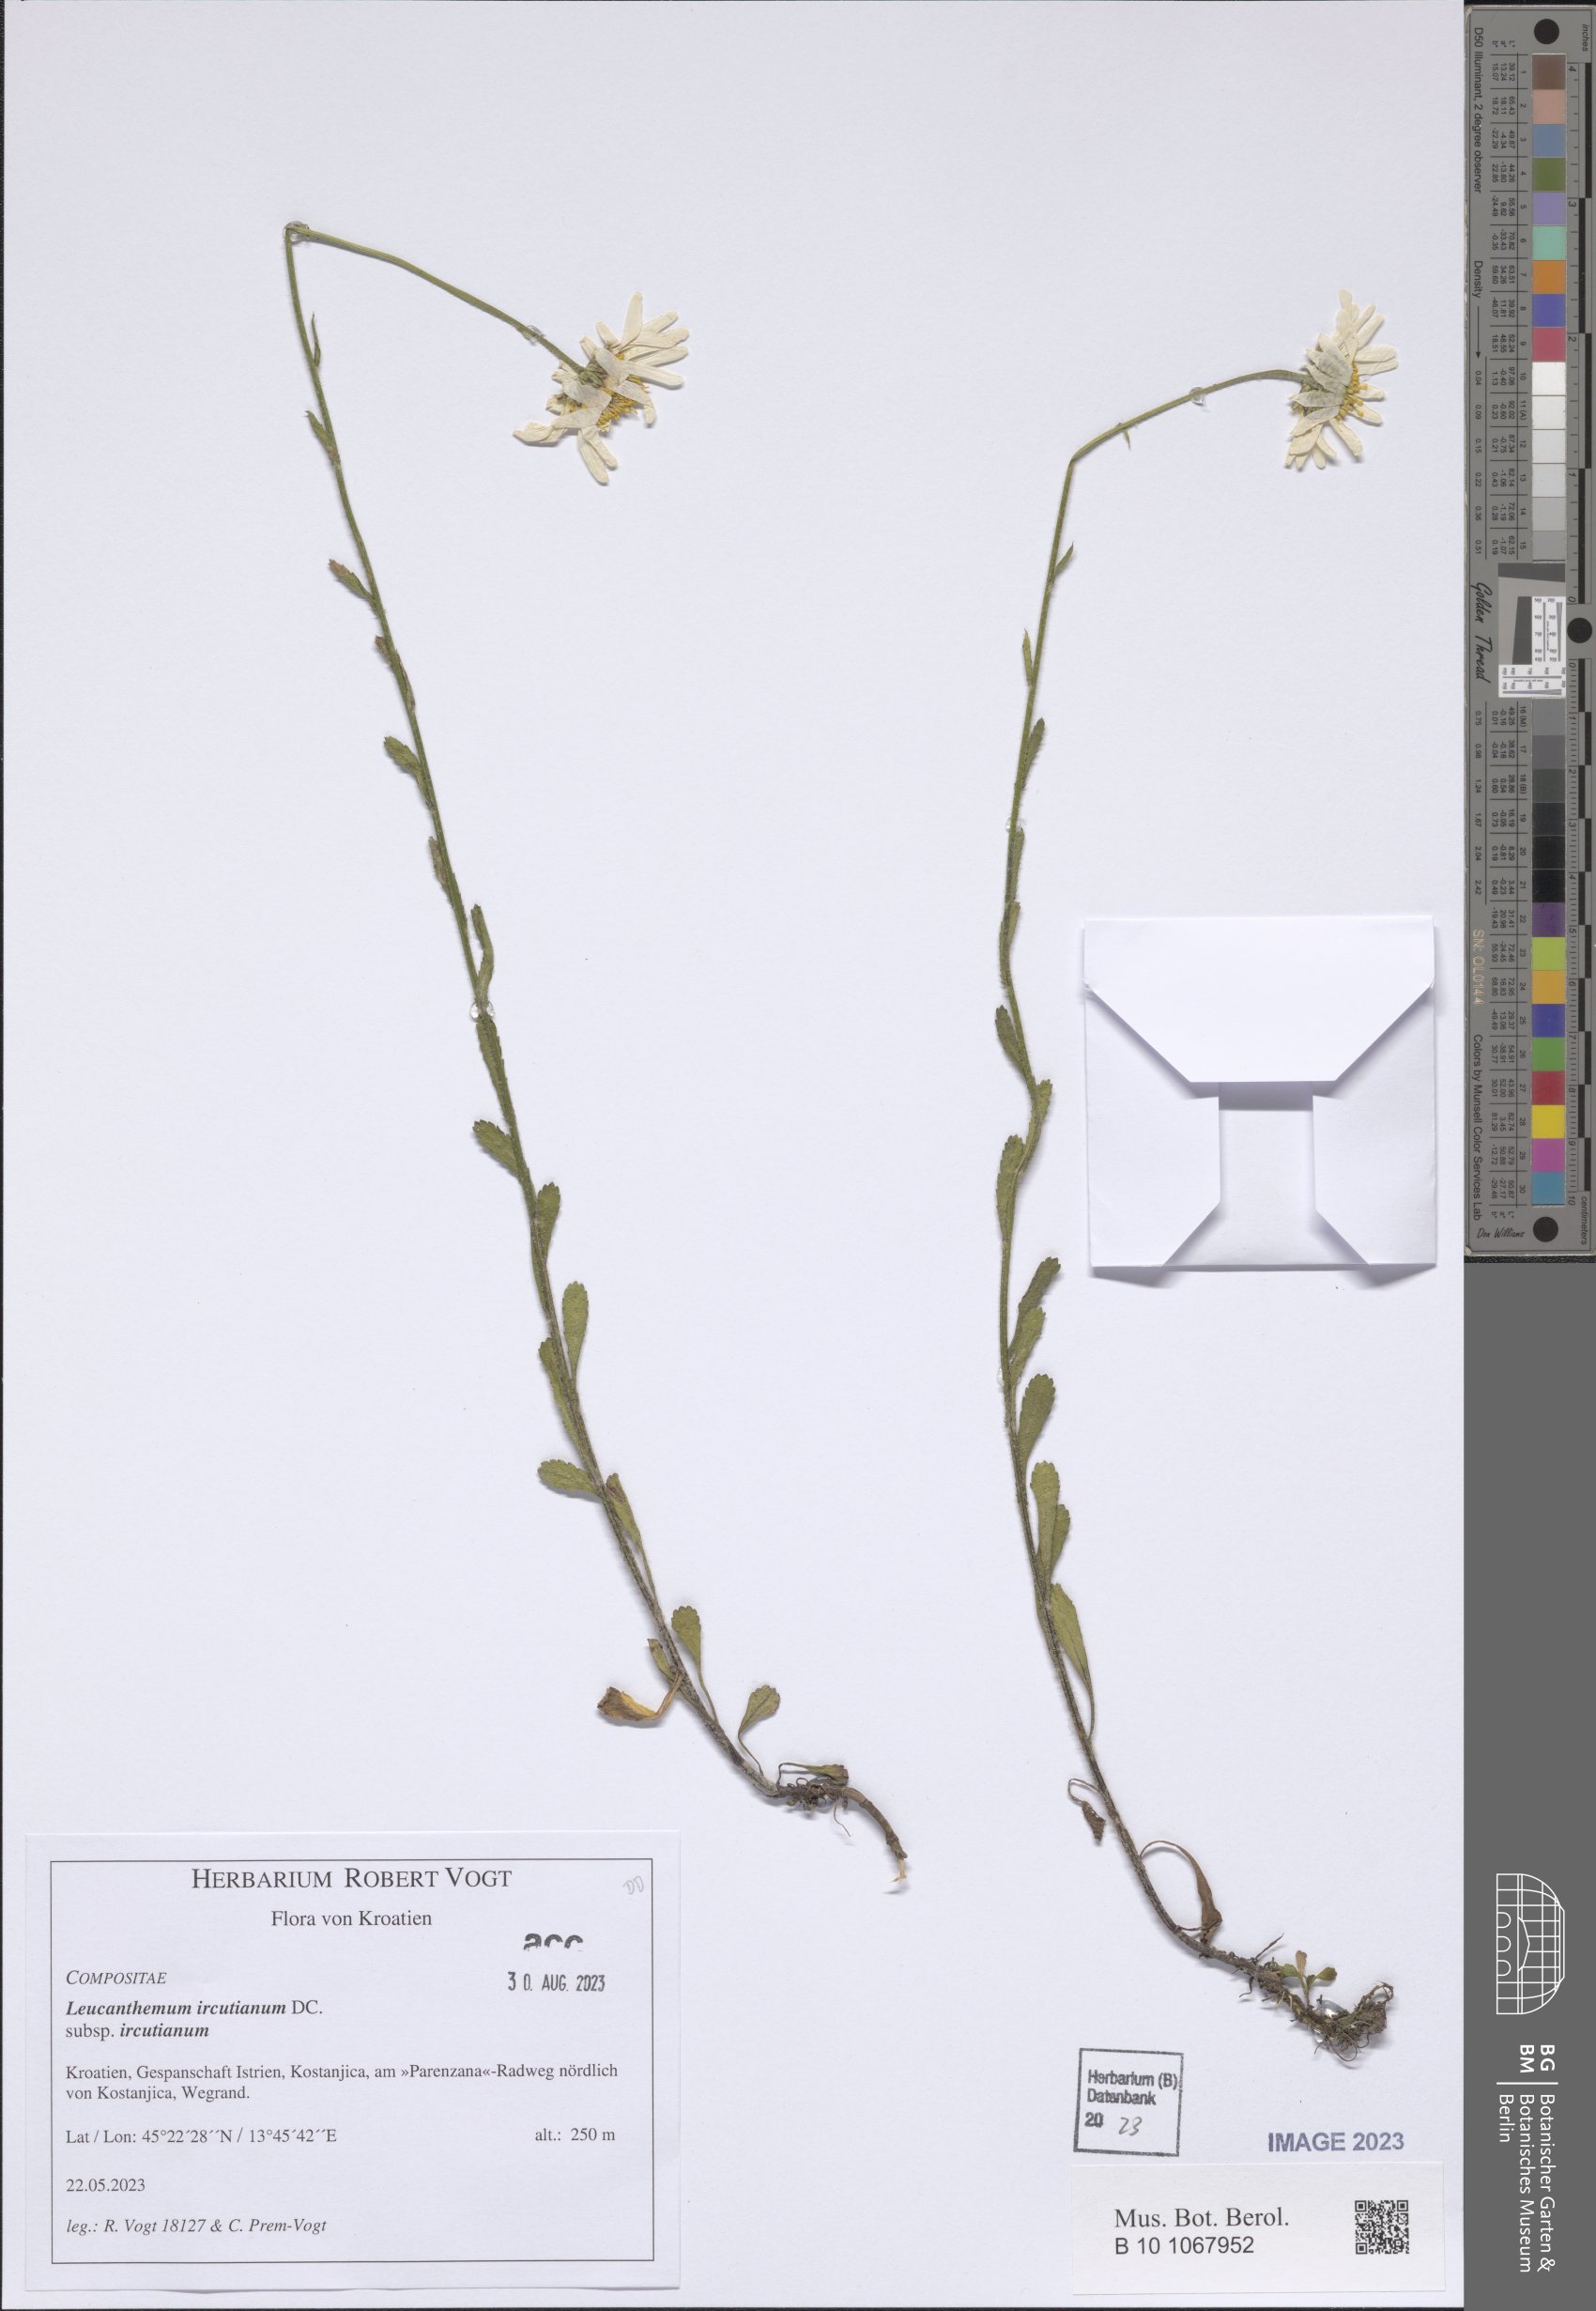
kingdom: Plantae
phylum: Tracheophyta
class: Magnoliopsida
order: Asterales
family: Asteraceae
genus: Leucanthemum
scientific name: Leucanthemum ircutianum
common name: Daisy
